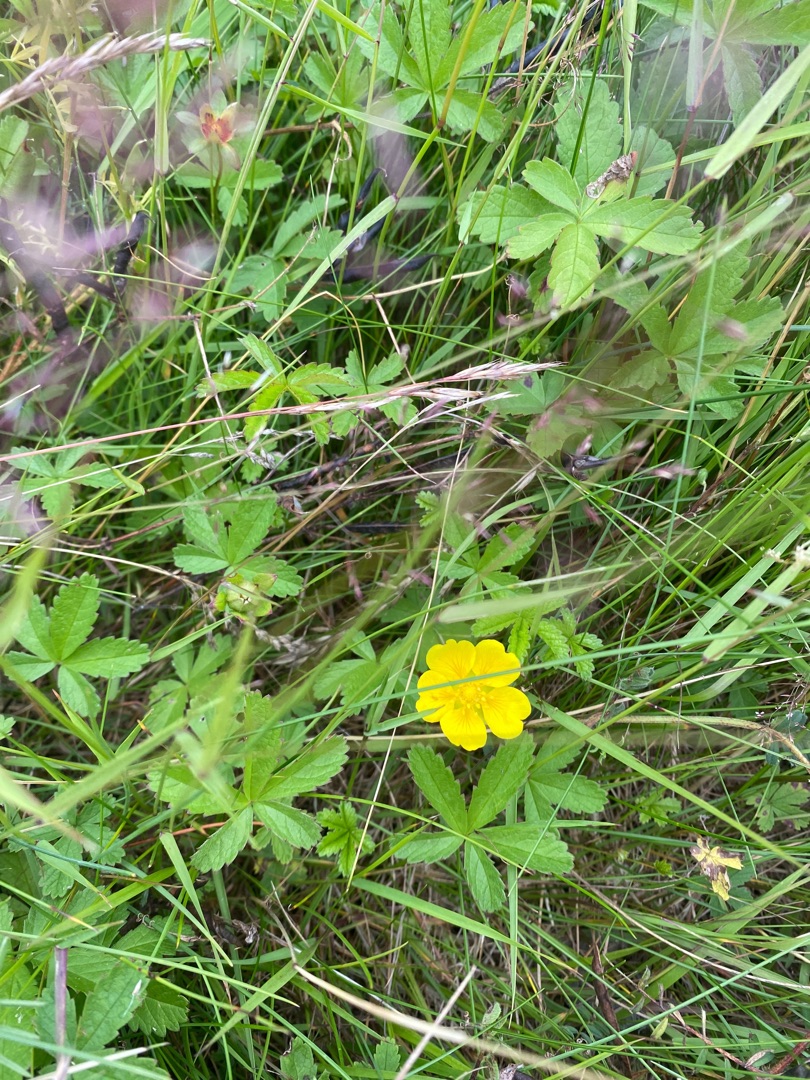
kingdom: Plantae
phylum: Tracheophyta
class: Magnoliopsida
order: Rosales
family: Rosaceae
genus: Potentilla
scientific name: Potentilla reptans
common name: Krybende potentil
